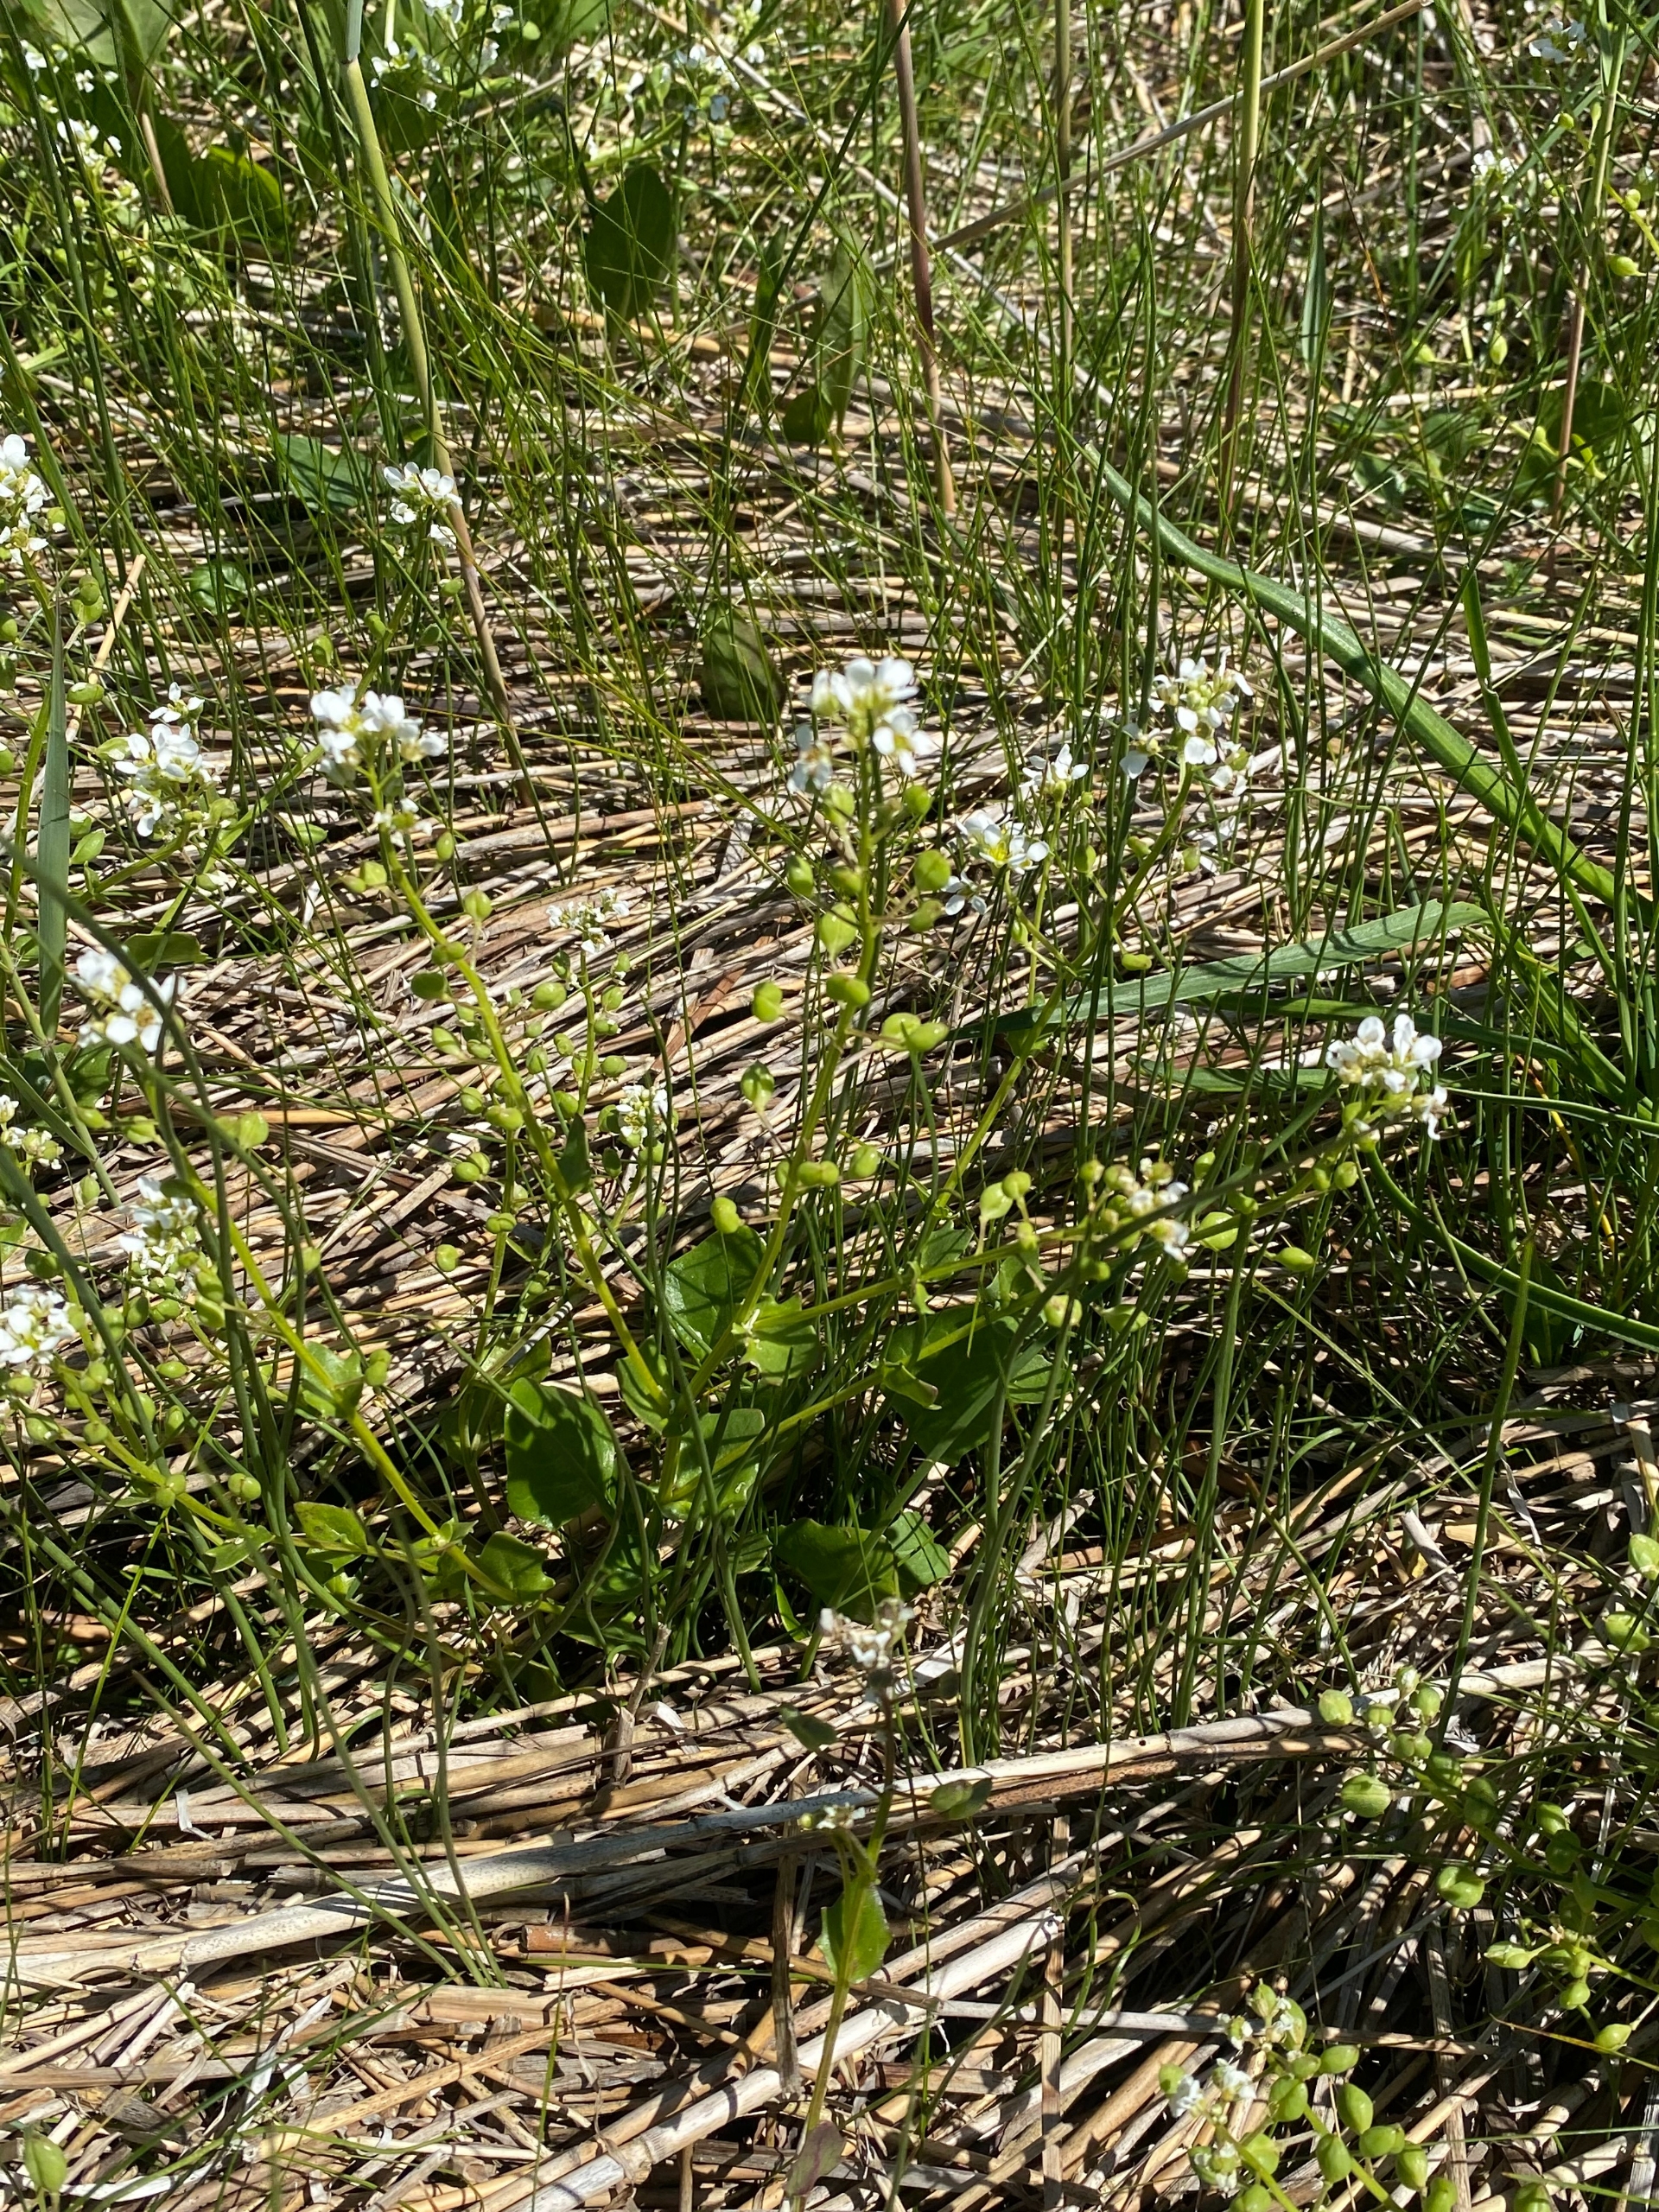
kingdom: Plantae
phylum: Tracheophyta
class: Magnoliopsida
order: Brassicales
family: Brassicaceae
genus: Cochlearia
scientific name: Cochlearia officinalis
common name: Læge-kokleare
